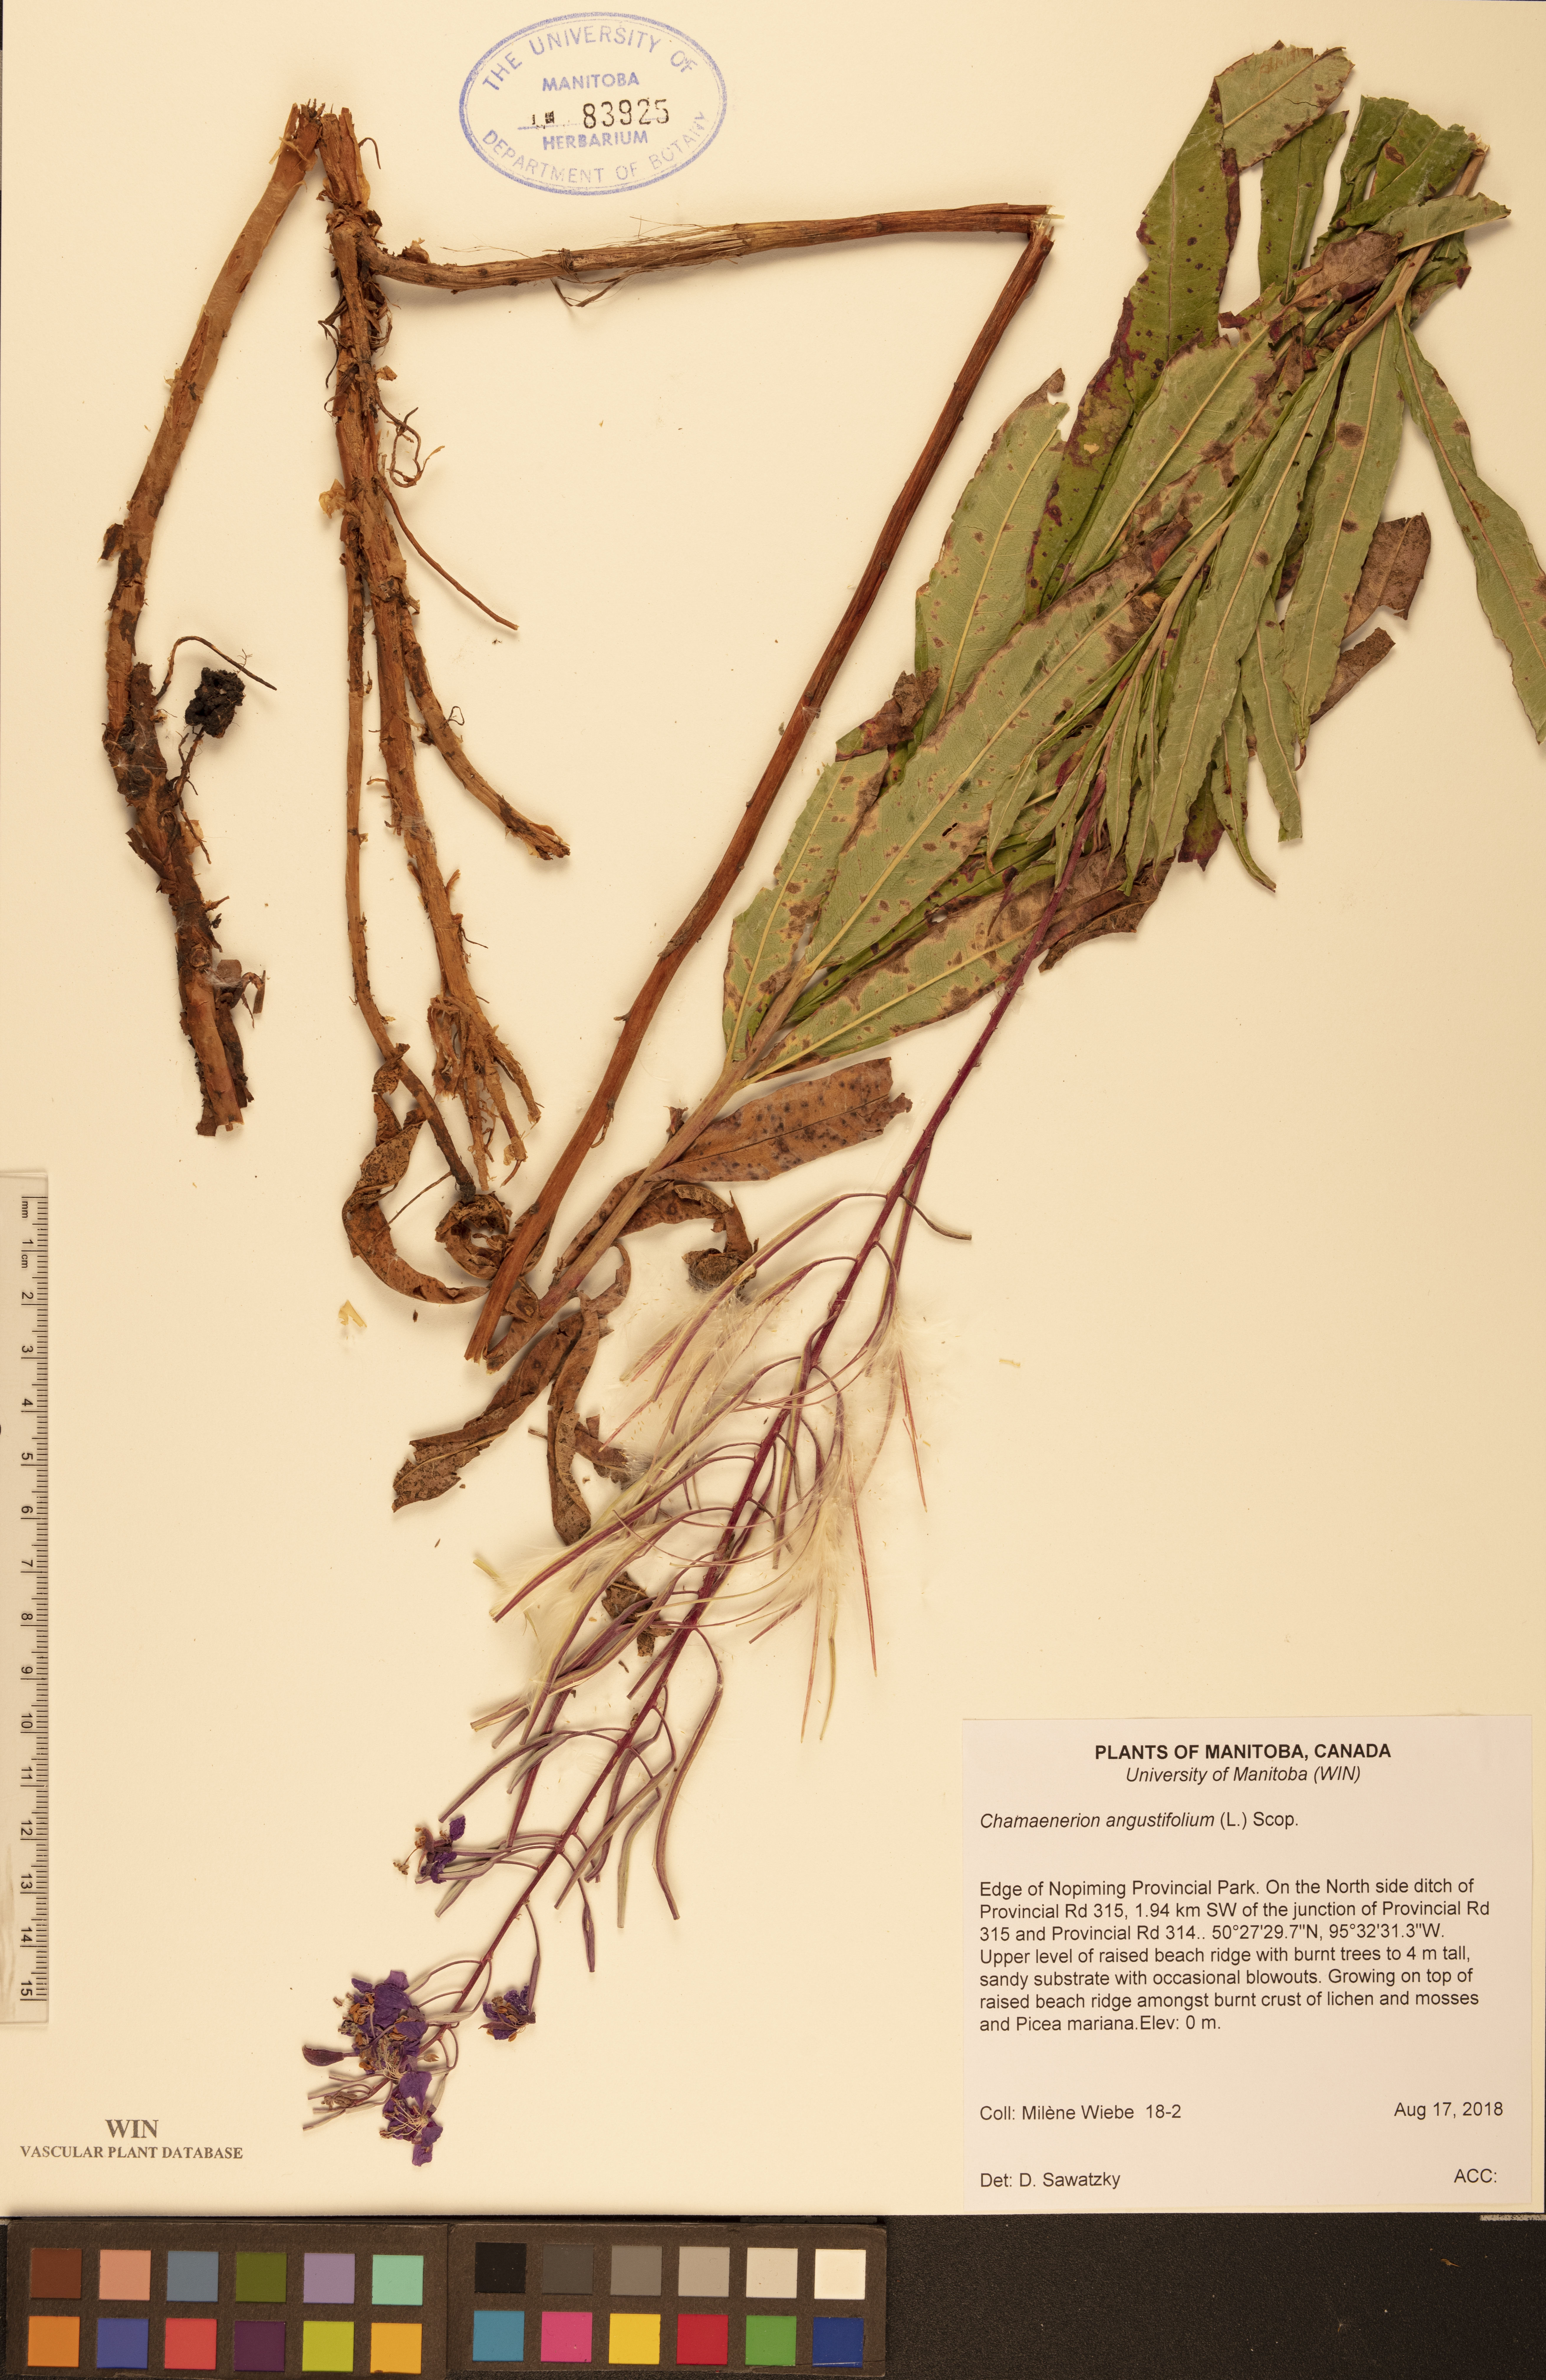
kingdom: Plantae
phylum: Tracheophyta
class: Magnoliopsida
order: Myrtales
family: Onagraceae
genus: Chamaenerion
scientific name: Chamaenerion angustifolium
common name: Fireweed
